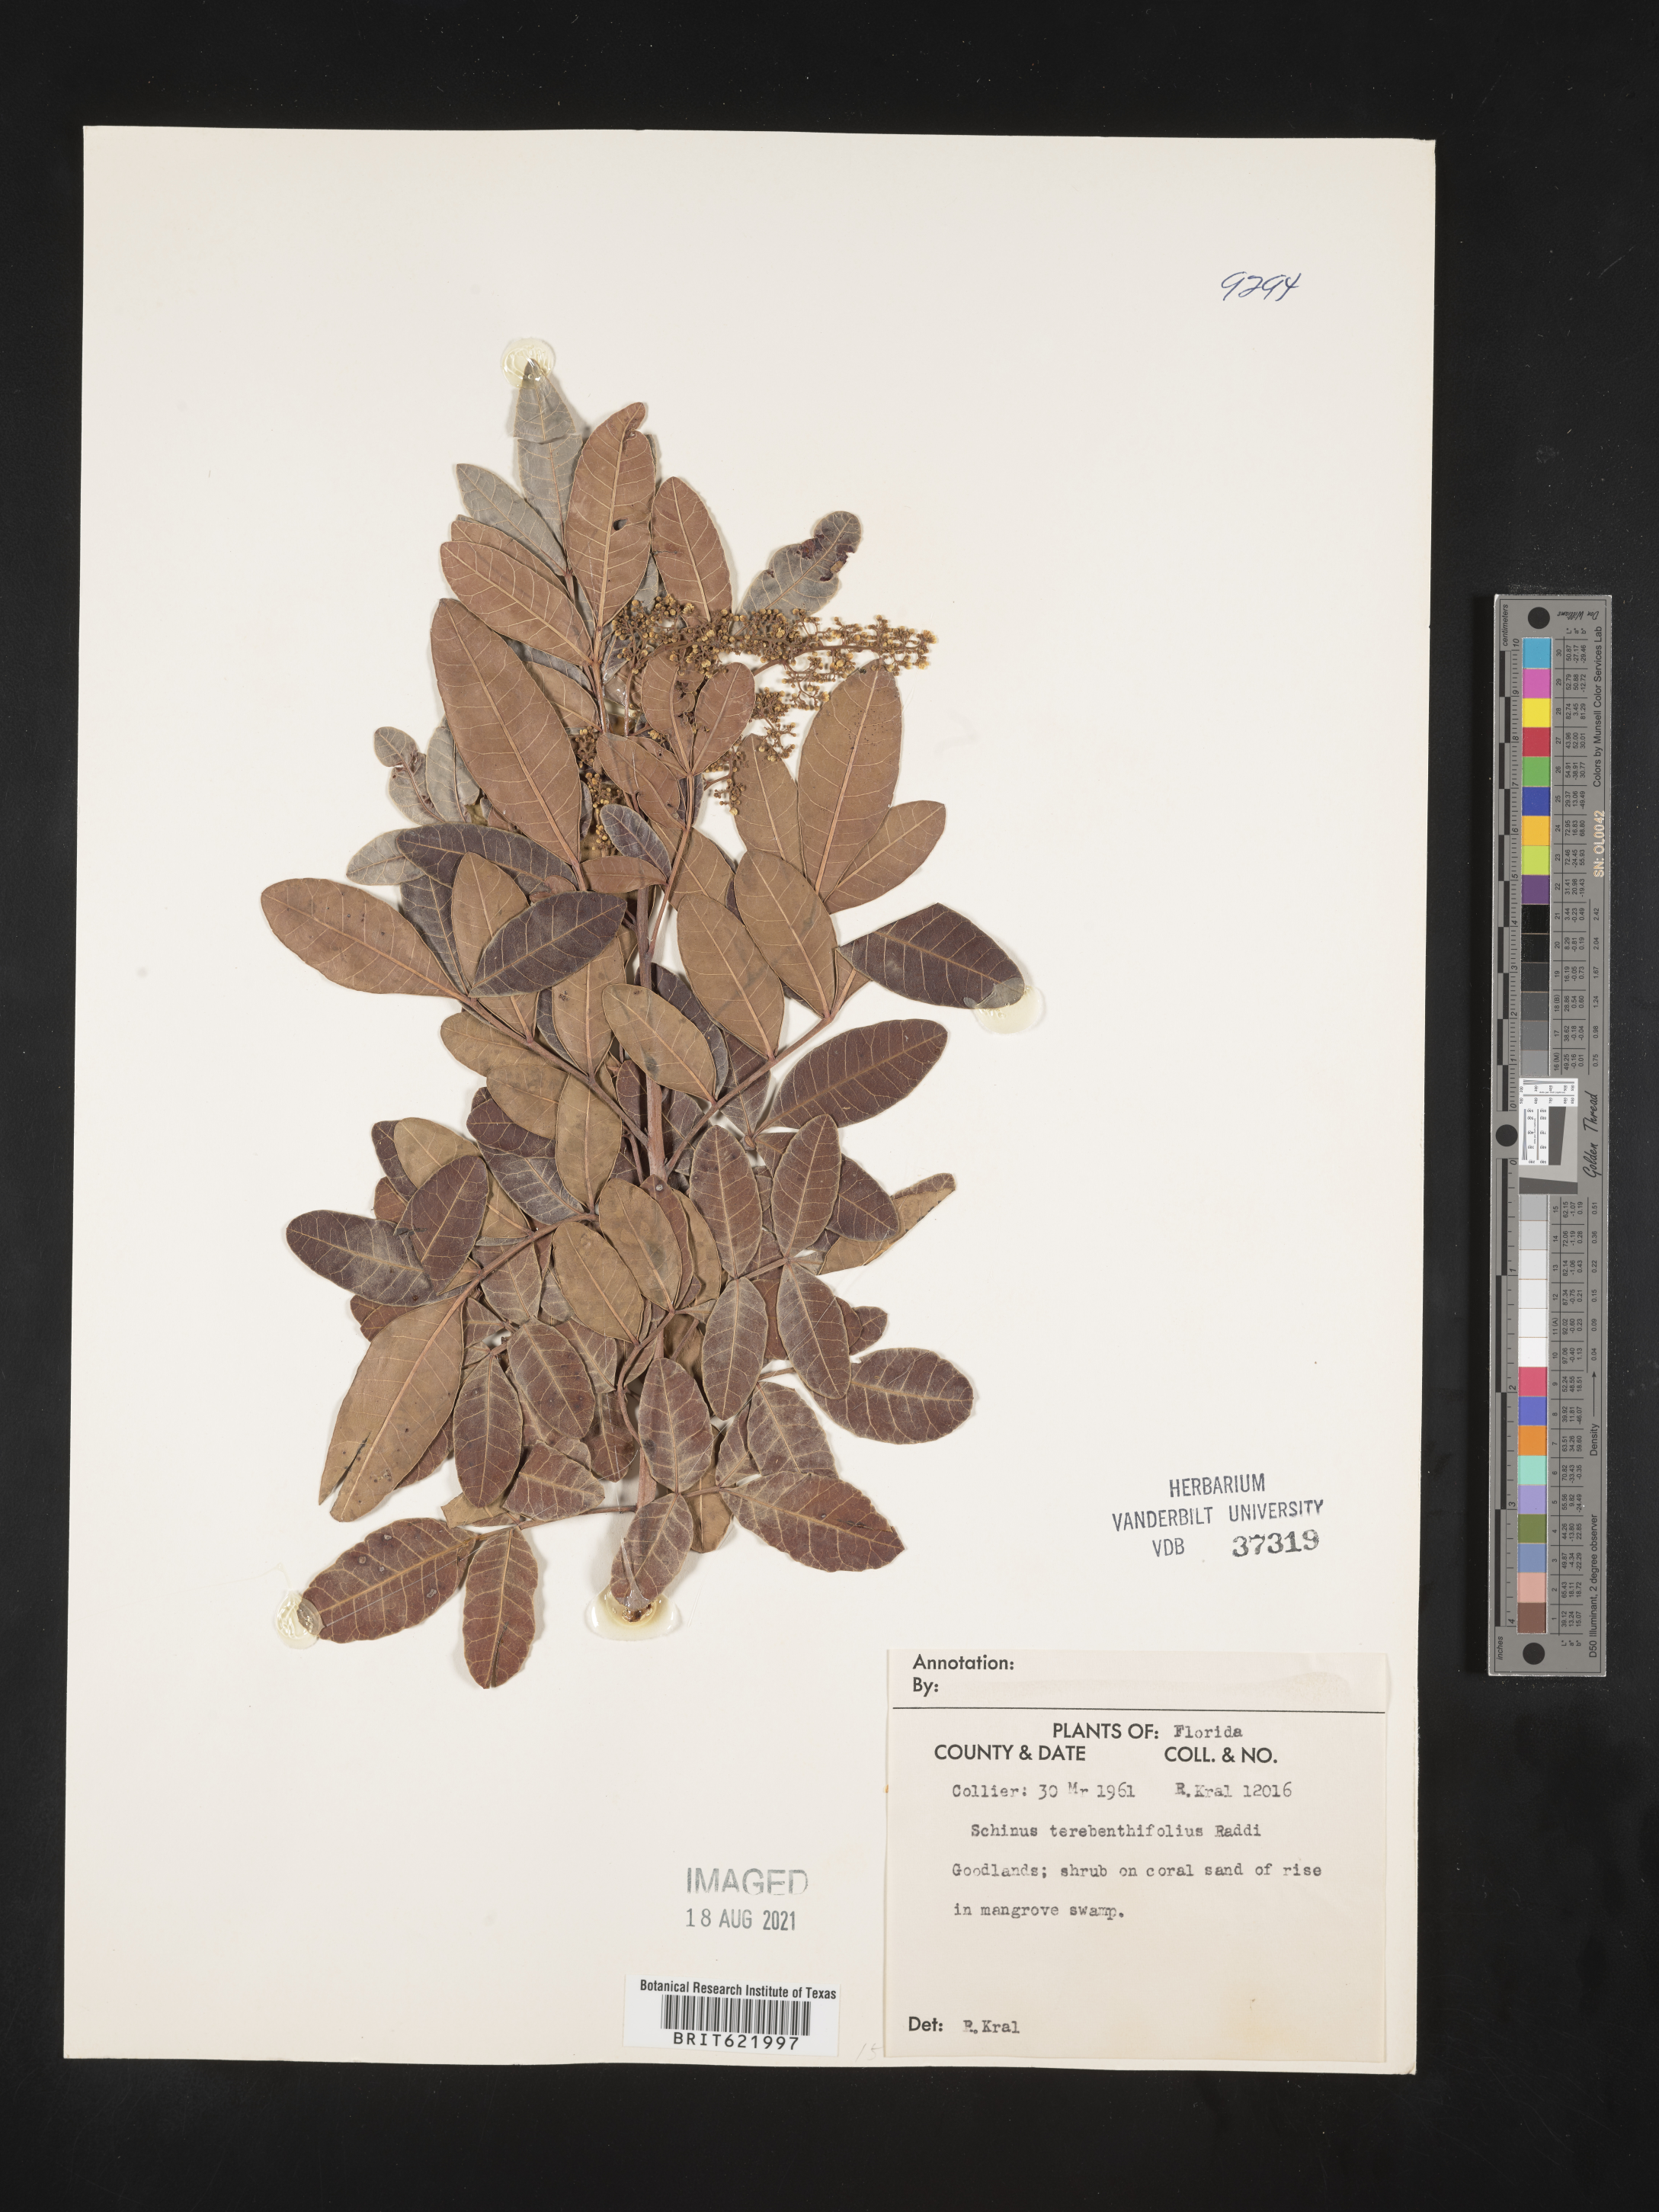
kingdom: Plantae
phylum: Tracheophyta
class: Magnoliopsida
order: Sapindales
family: Anacardiaceae
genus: Schinus
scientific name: Schinus terebinthifolia
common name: Brazilian peppertree
